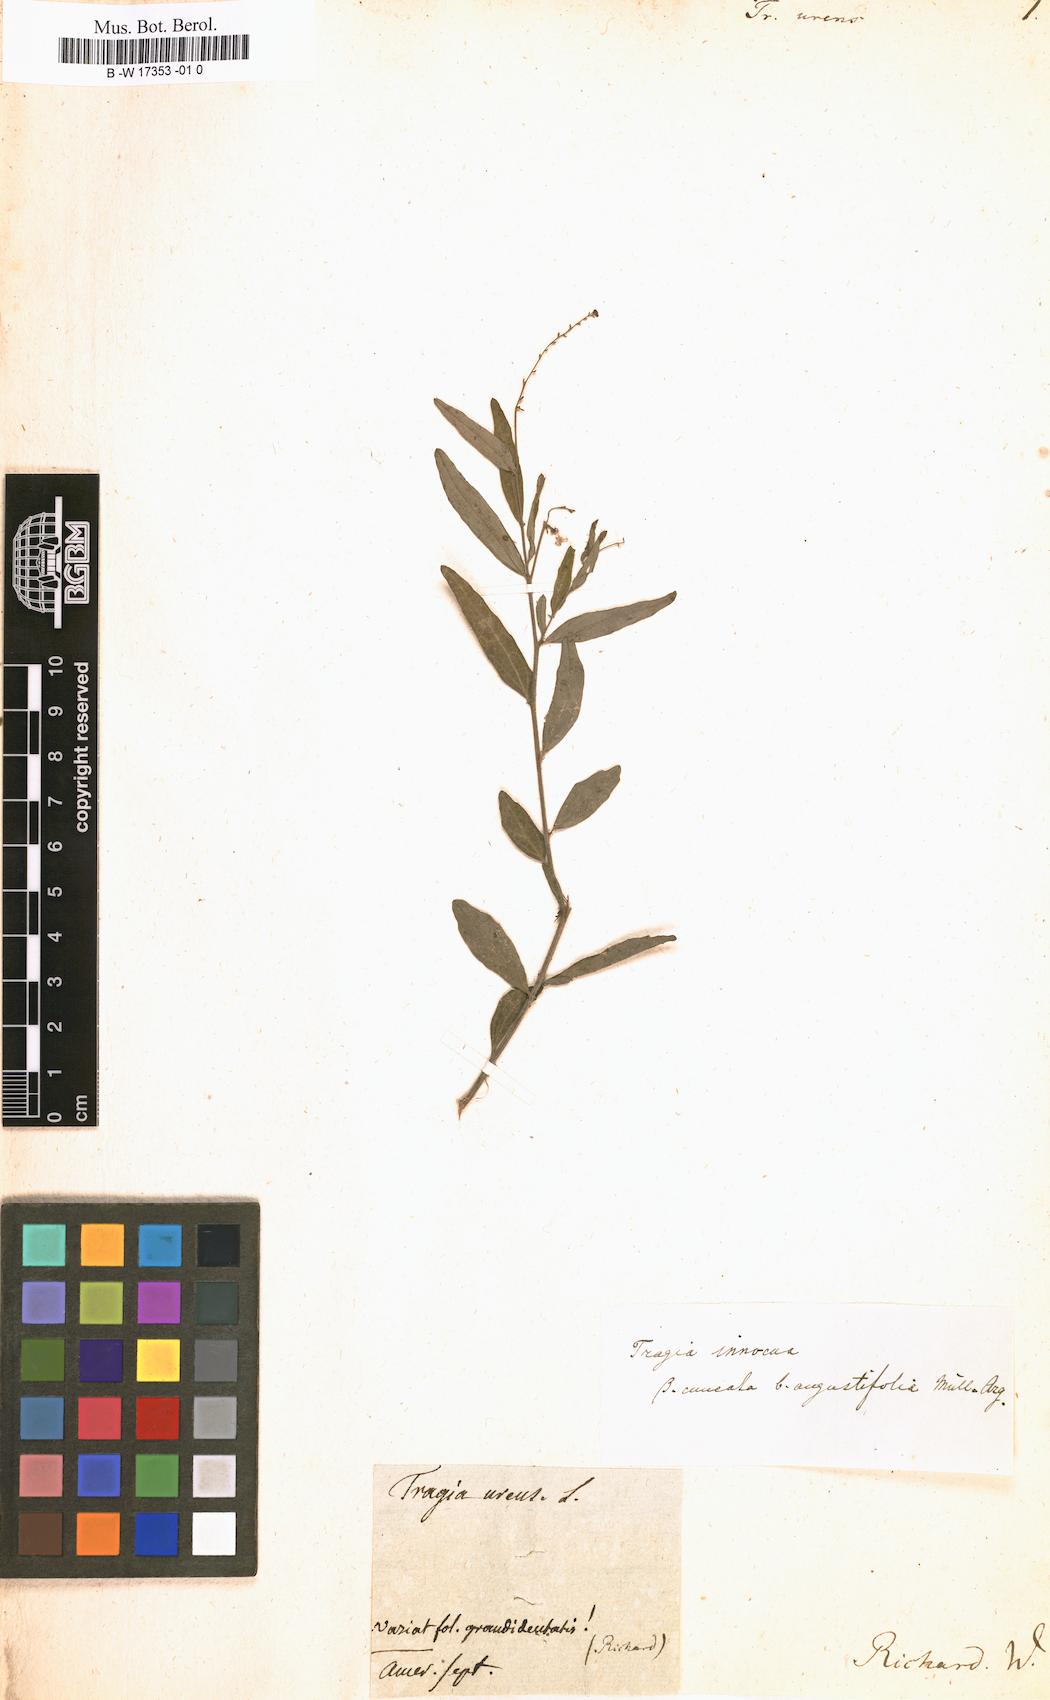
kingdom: Plantae
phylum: Tracheophyta
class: Magnoliopsida
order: Malpighiales
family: Euphorbiaceae
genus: Tragia
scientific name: Tragia urens
